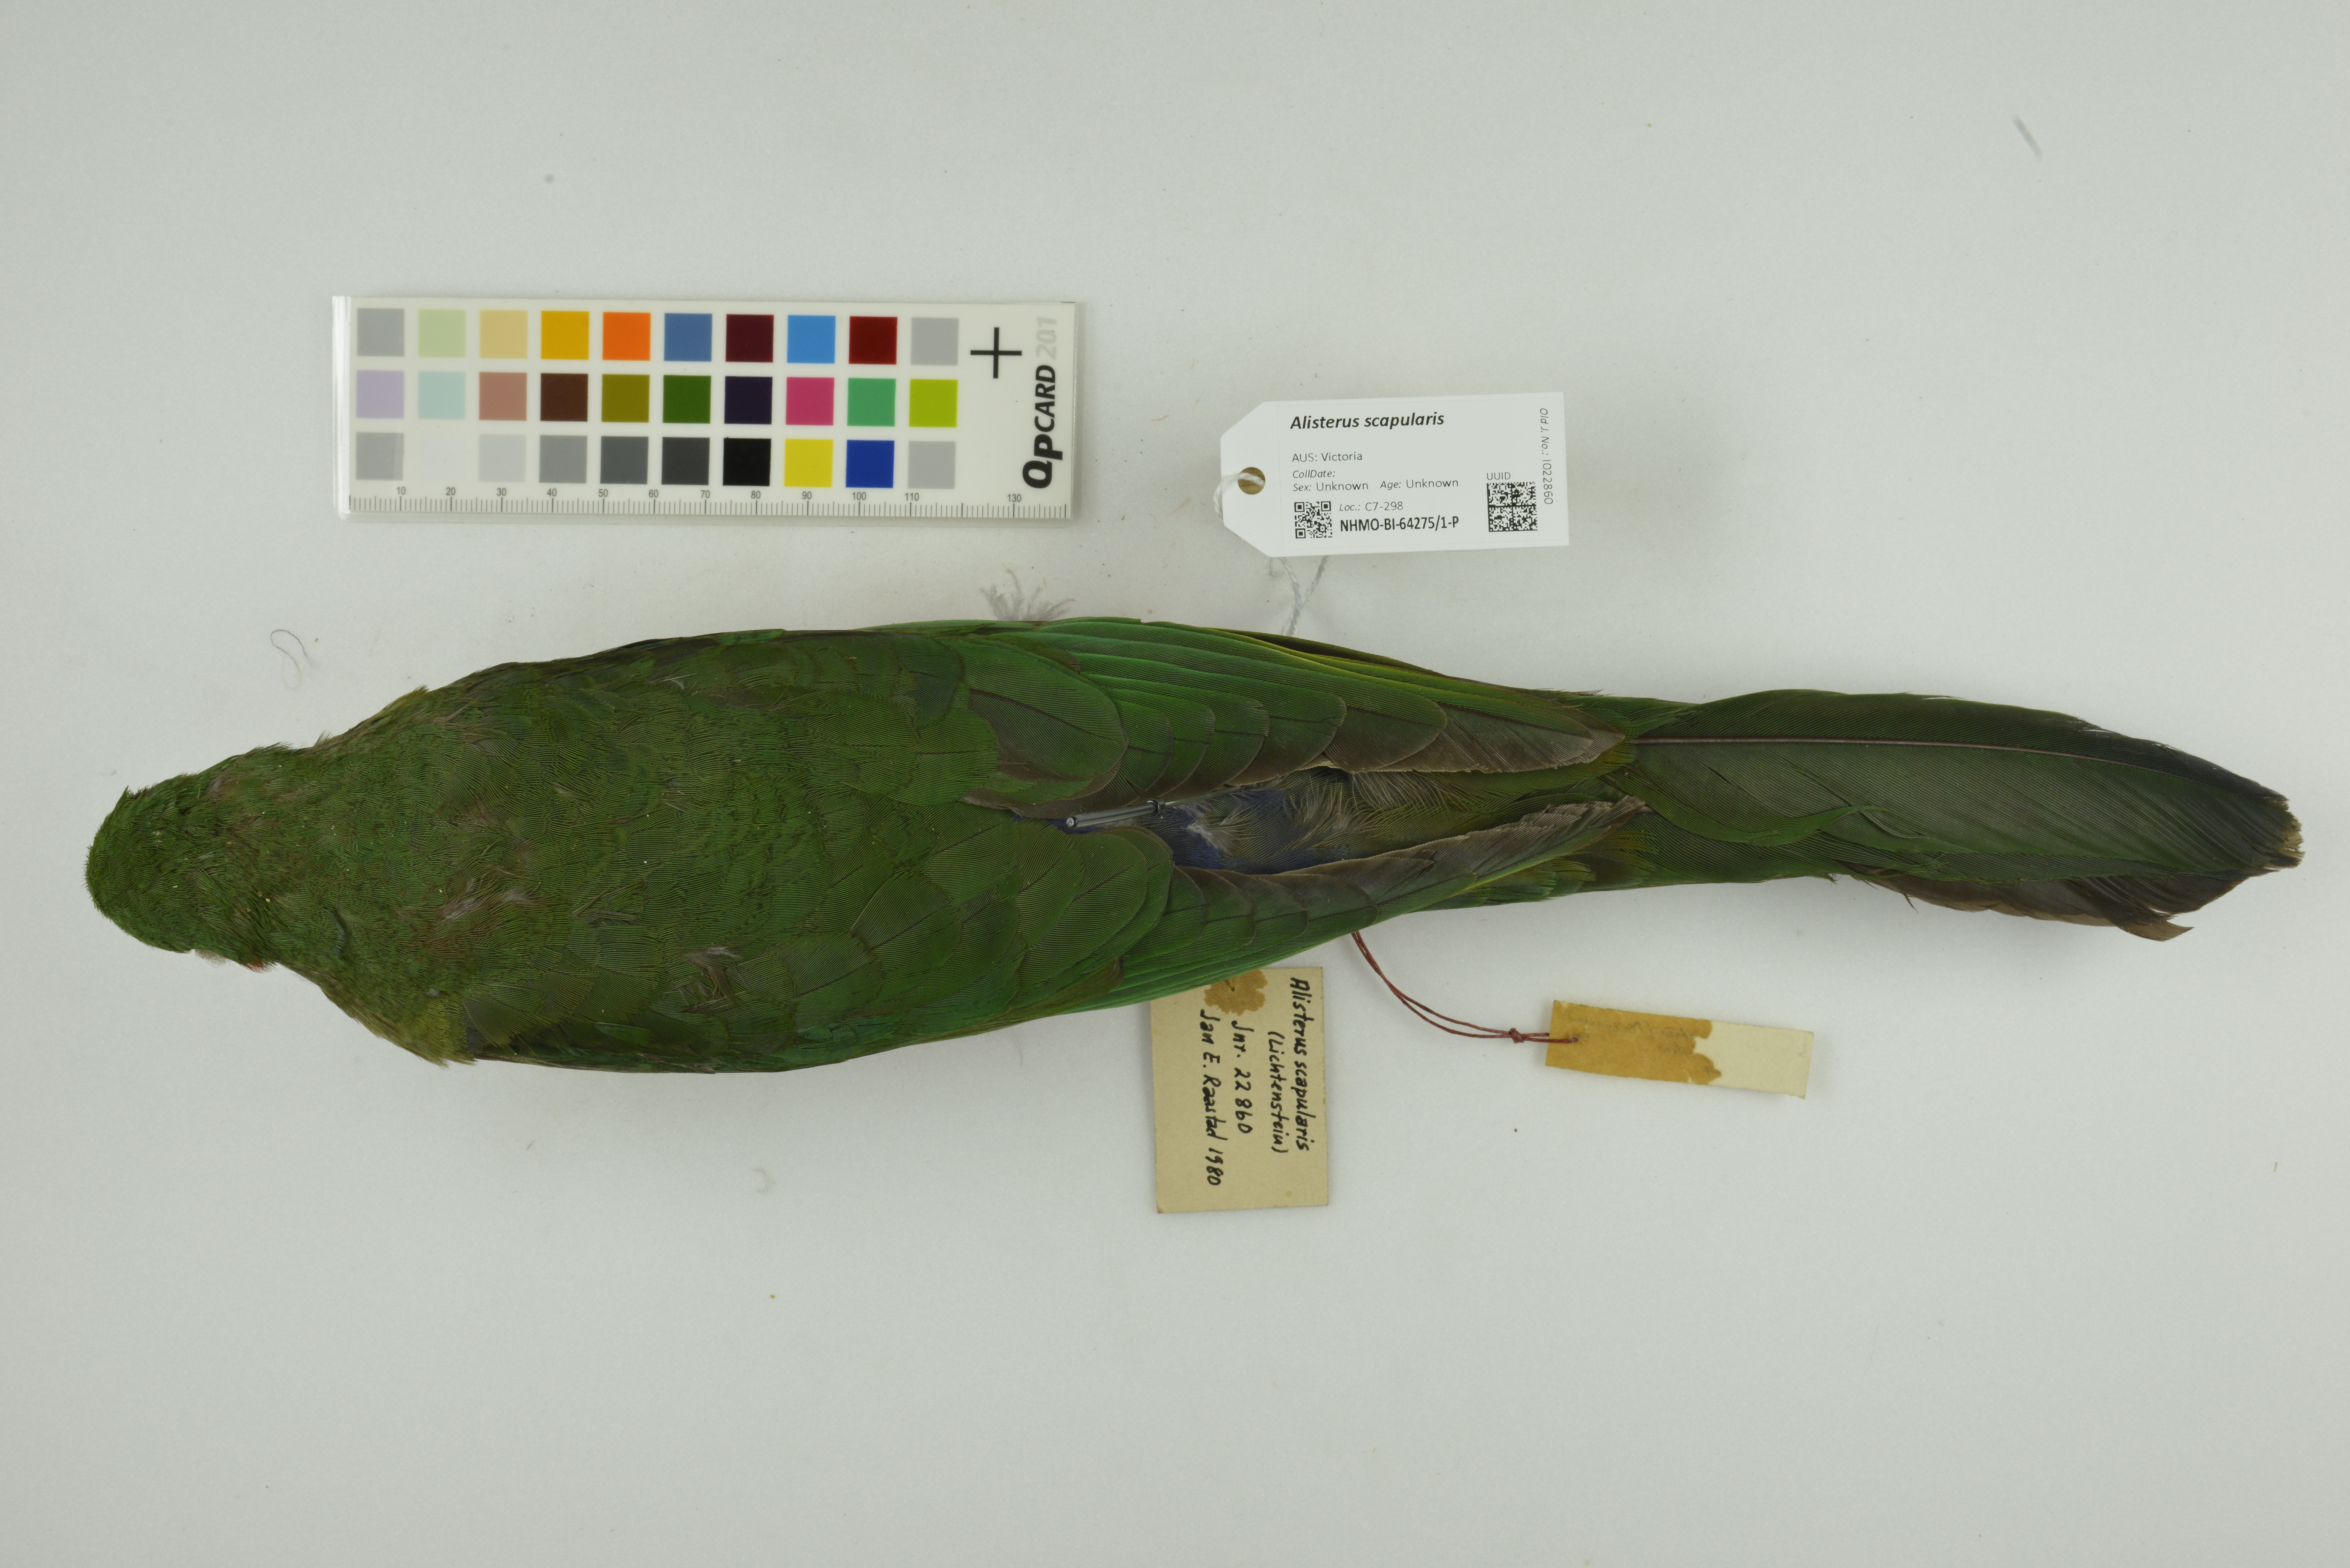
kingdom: Animalia
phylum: Chordata
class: Aves
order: Psittaciformes
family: Psittacidae
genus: Alisterus
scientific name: Alisterus scapularis
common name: Australian king parrot
